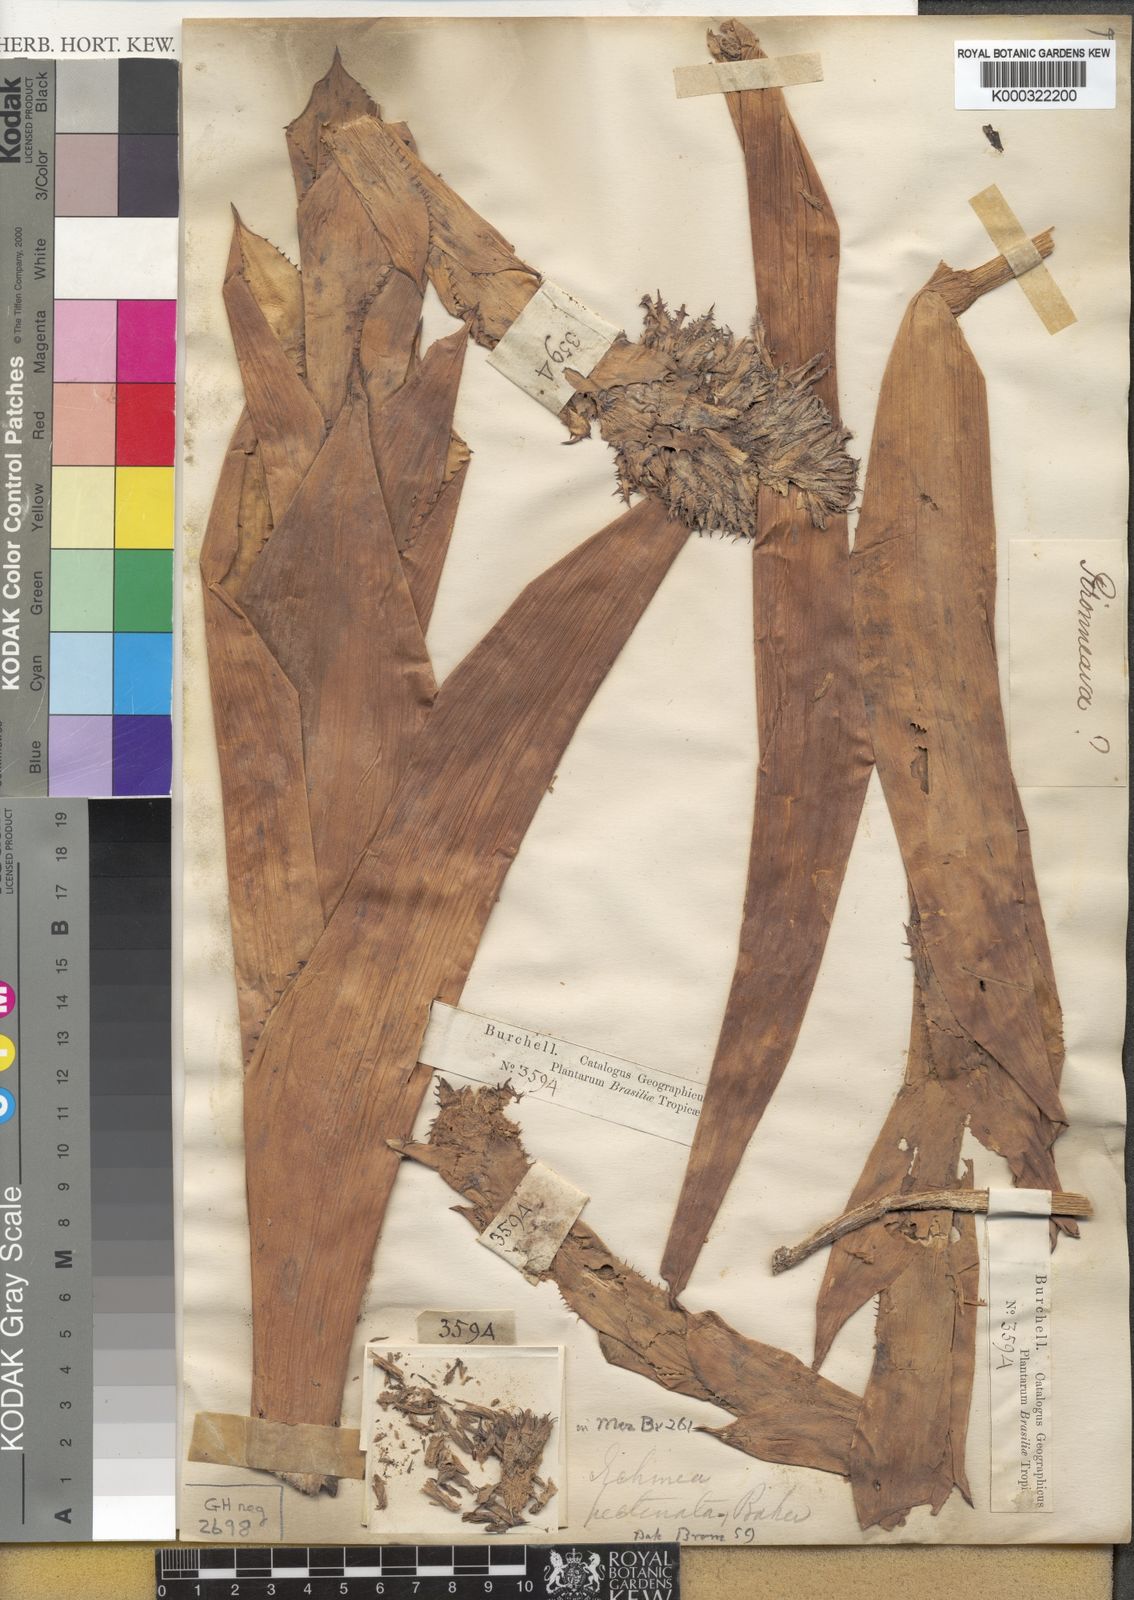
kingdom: Plantae
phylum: Tracheophyta
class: Liliopsida
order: Poales
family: Bromeliaceae
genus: Aechmea
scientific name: Aechmea pectinata
